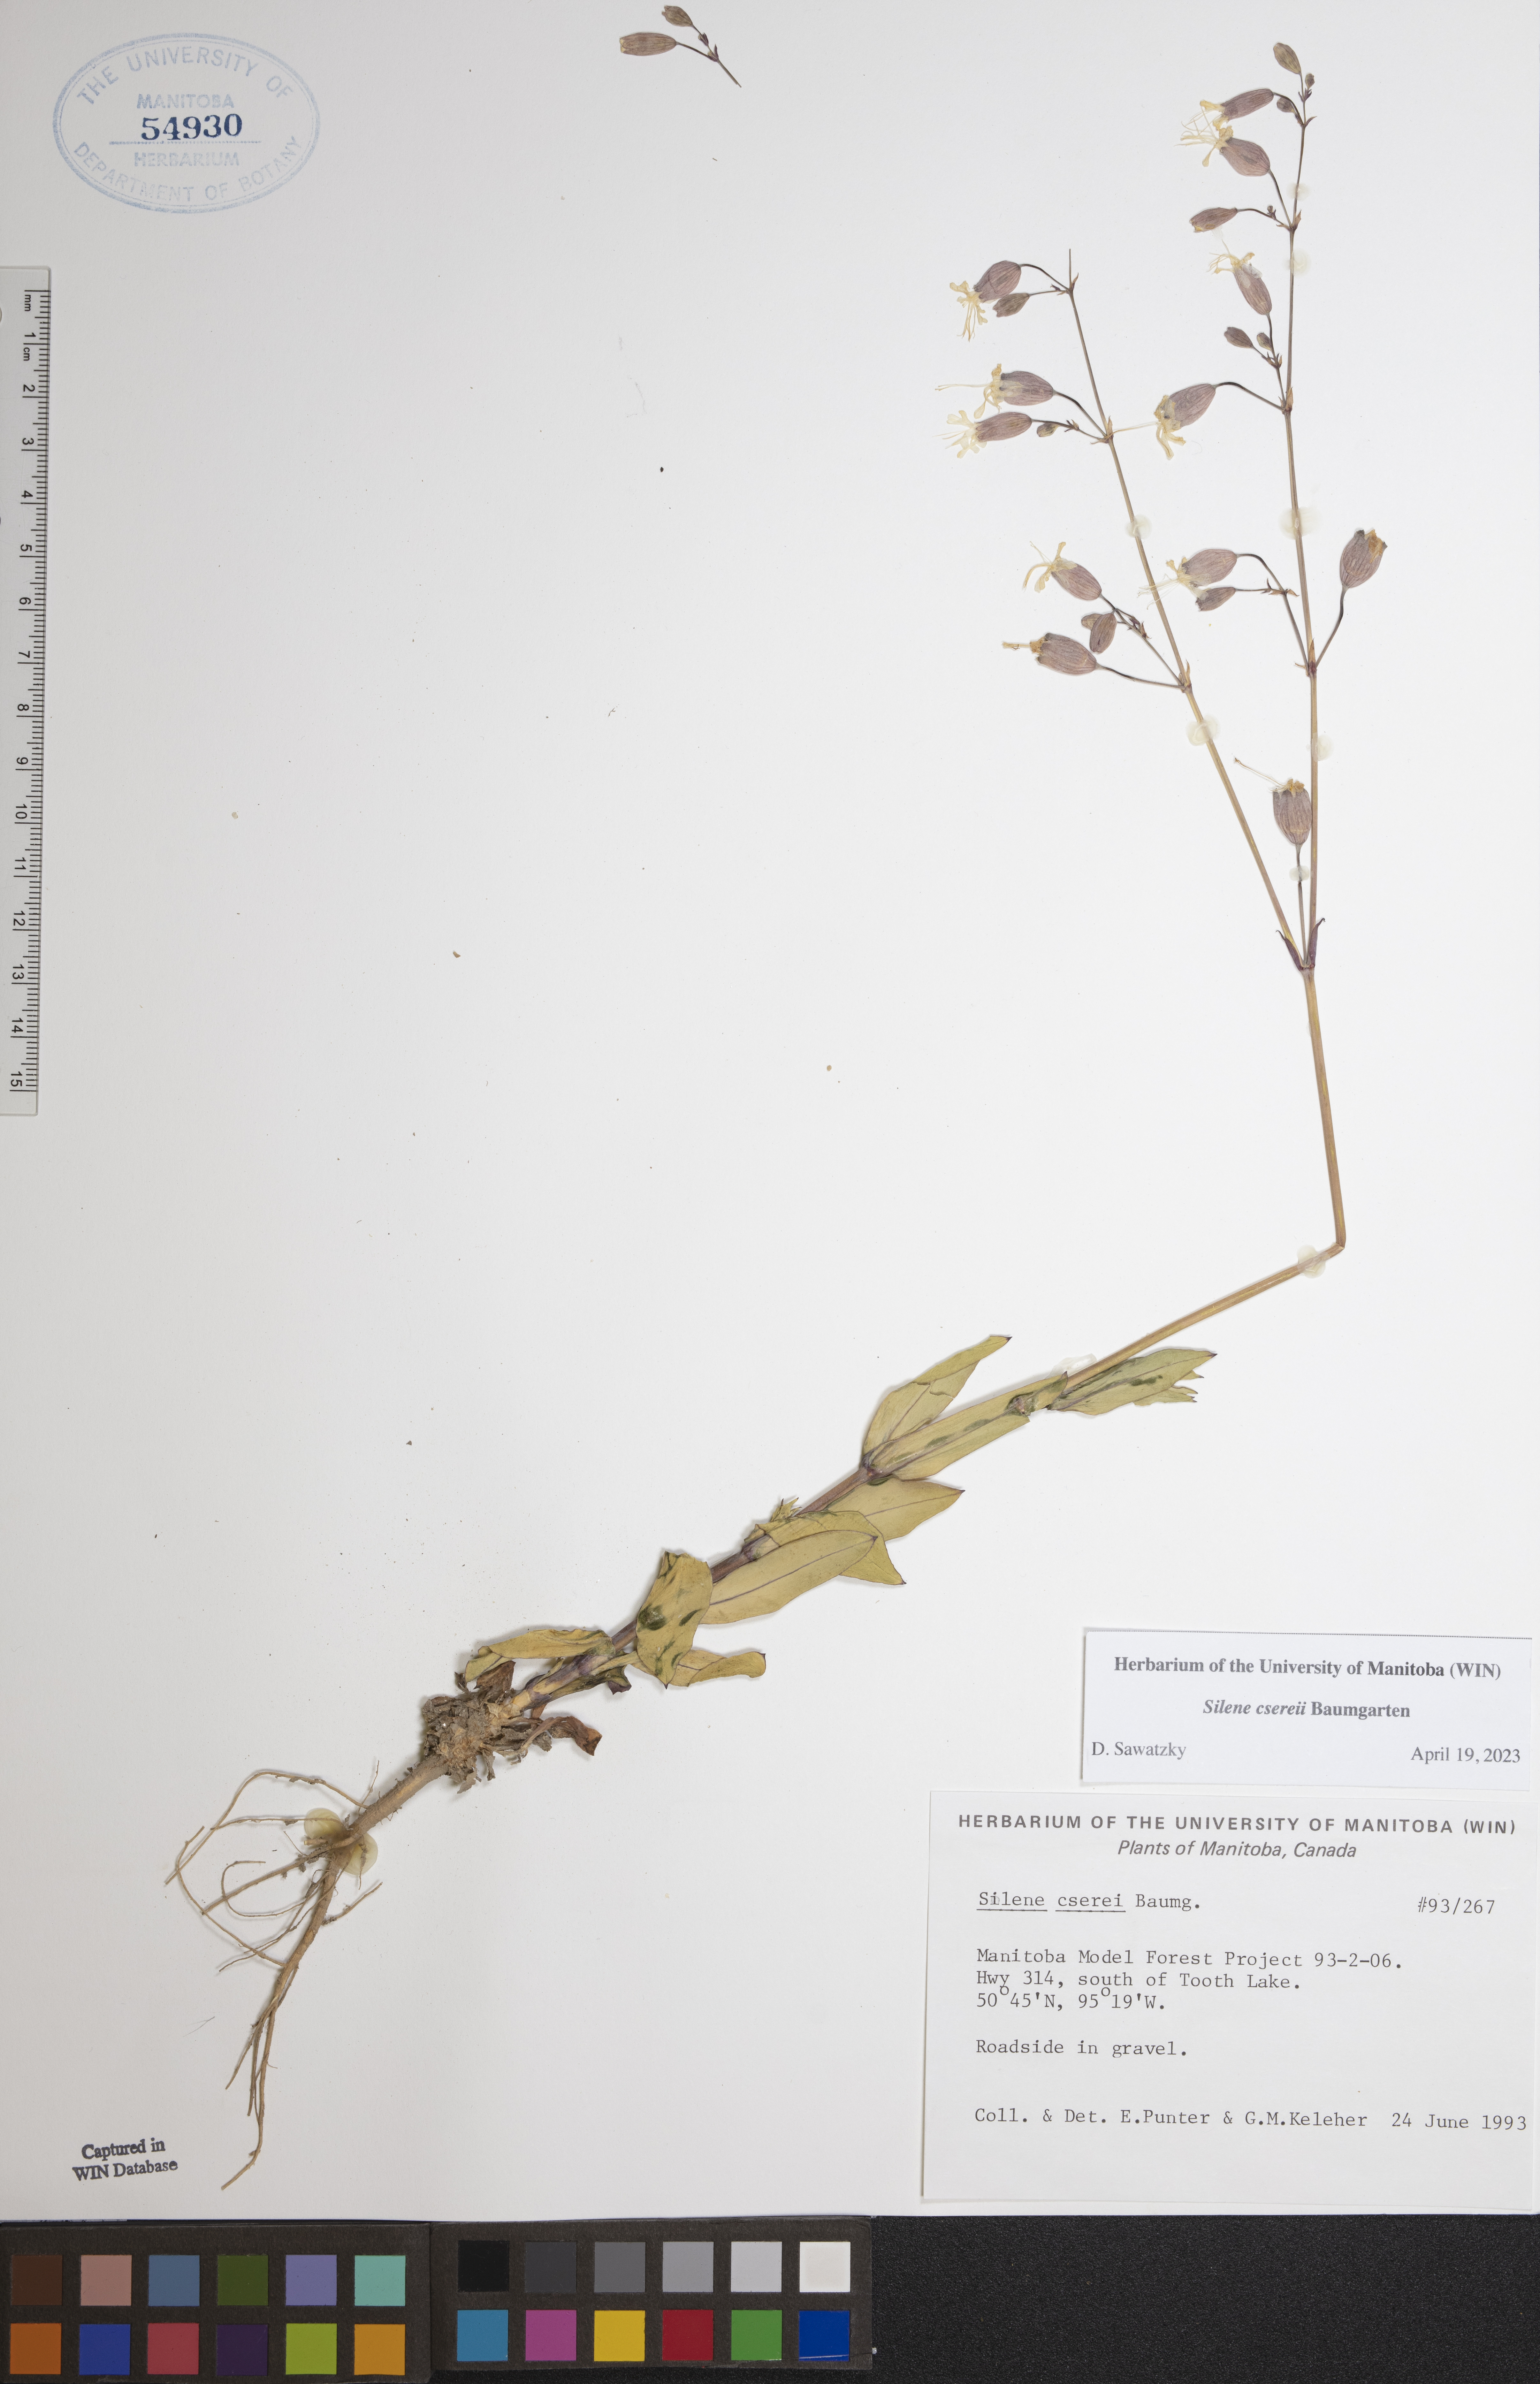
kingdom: Plantae
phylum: Tracheophyta
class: Magnoliopsida
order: Caryophyllales
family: Caryophyllaceae
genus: Silene
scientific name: Silene csereii
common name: Balkan catchfly
